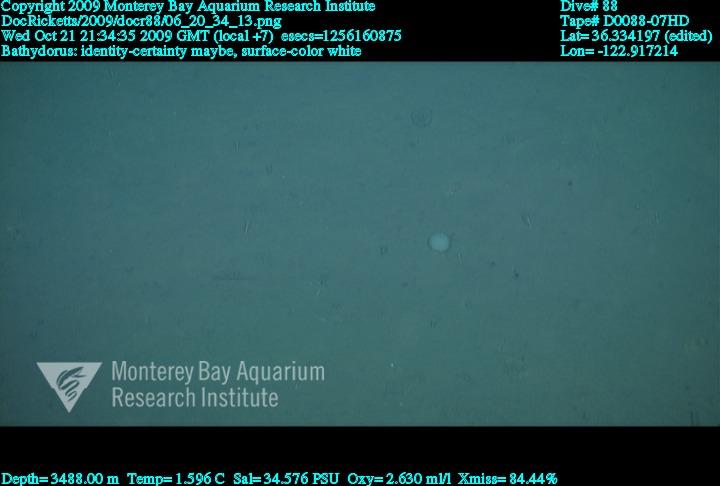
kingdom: Animalia
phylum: Porifera
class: Hexactinellida
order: Lyssacinosida
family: Rossellidae
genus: Bathydorus
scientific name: Bathydorus
